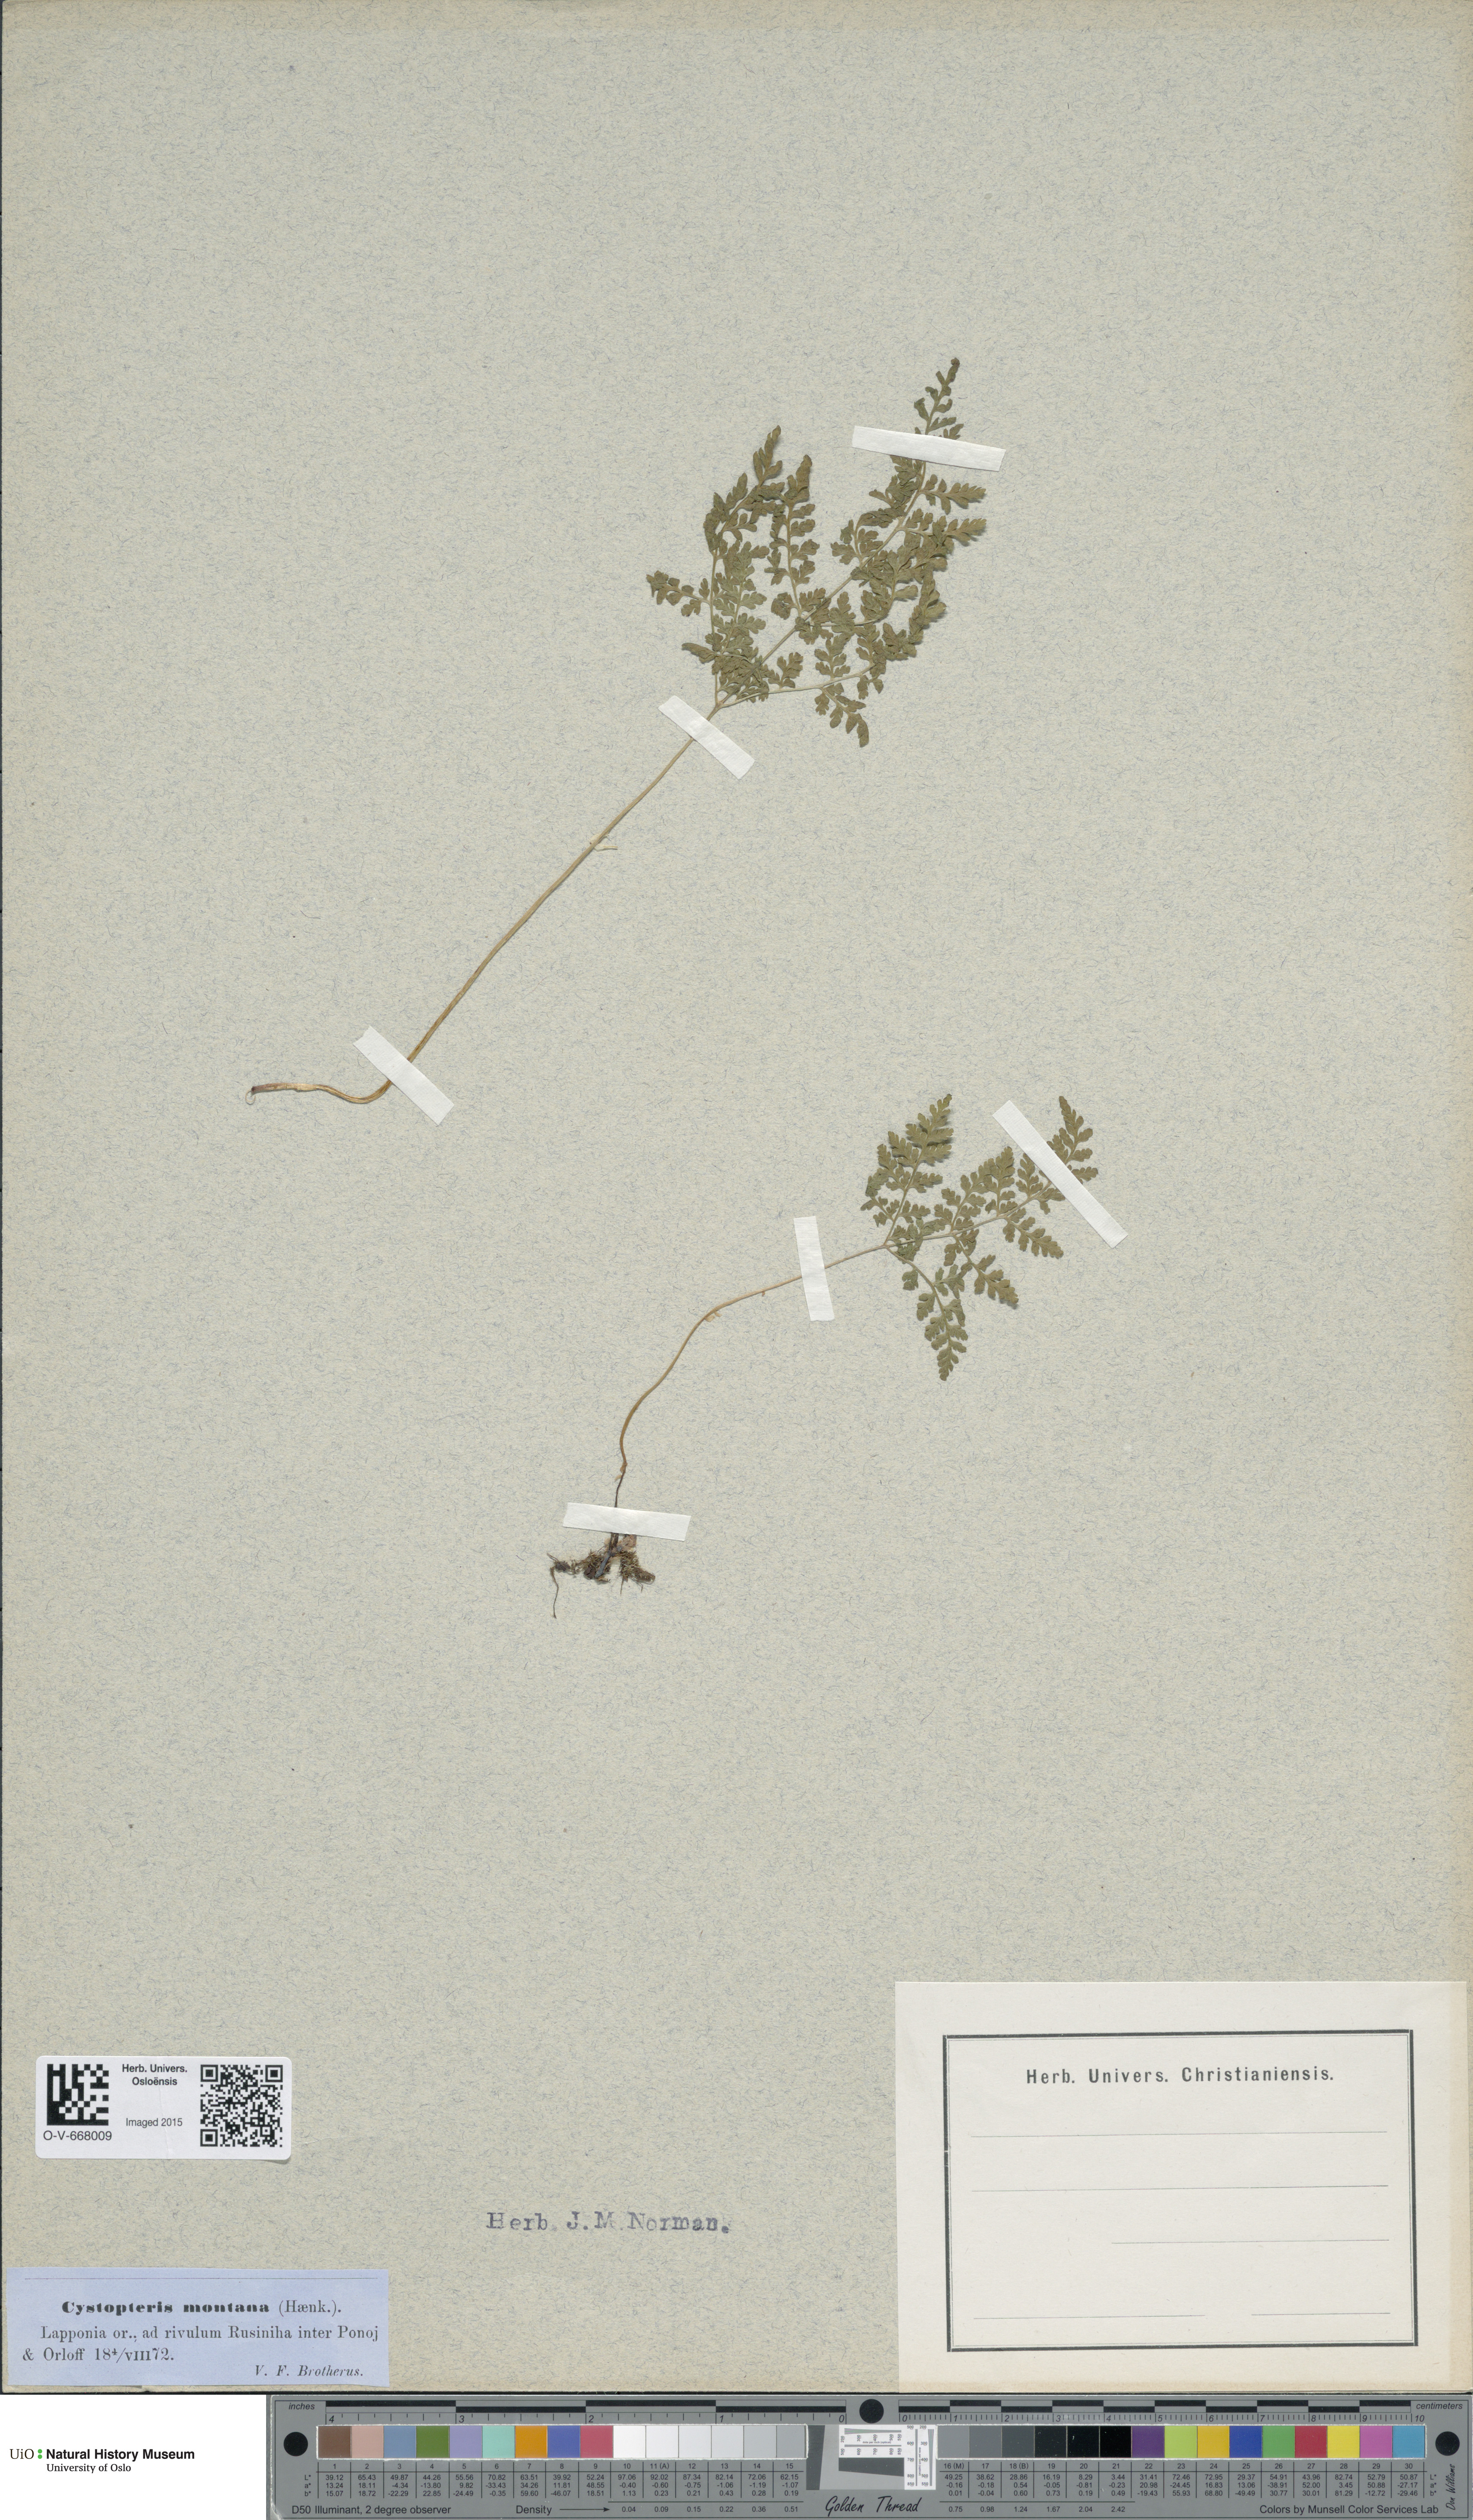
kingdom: Plantae
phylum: Tracheophyta
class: Polypodiopsida
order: Polypodiales
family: Cystopteridaceae
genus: Cystopteris
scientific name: Cystopteris montana
